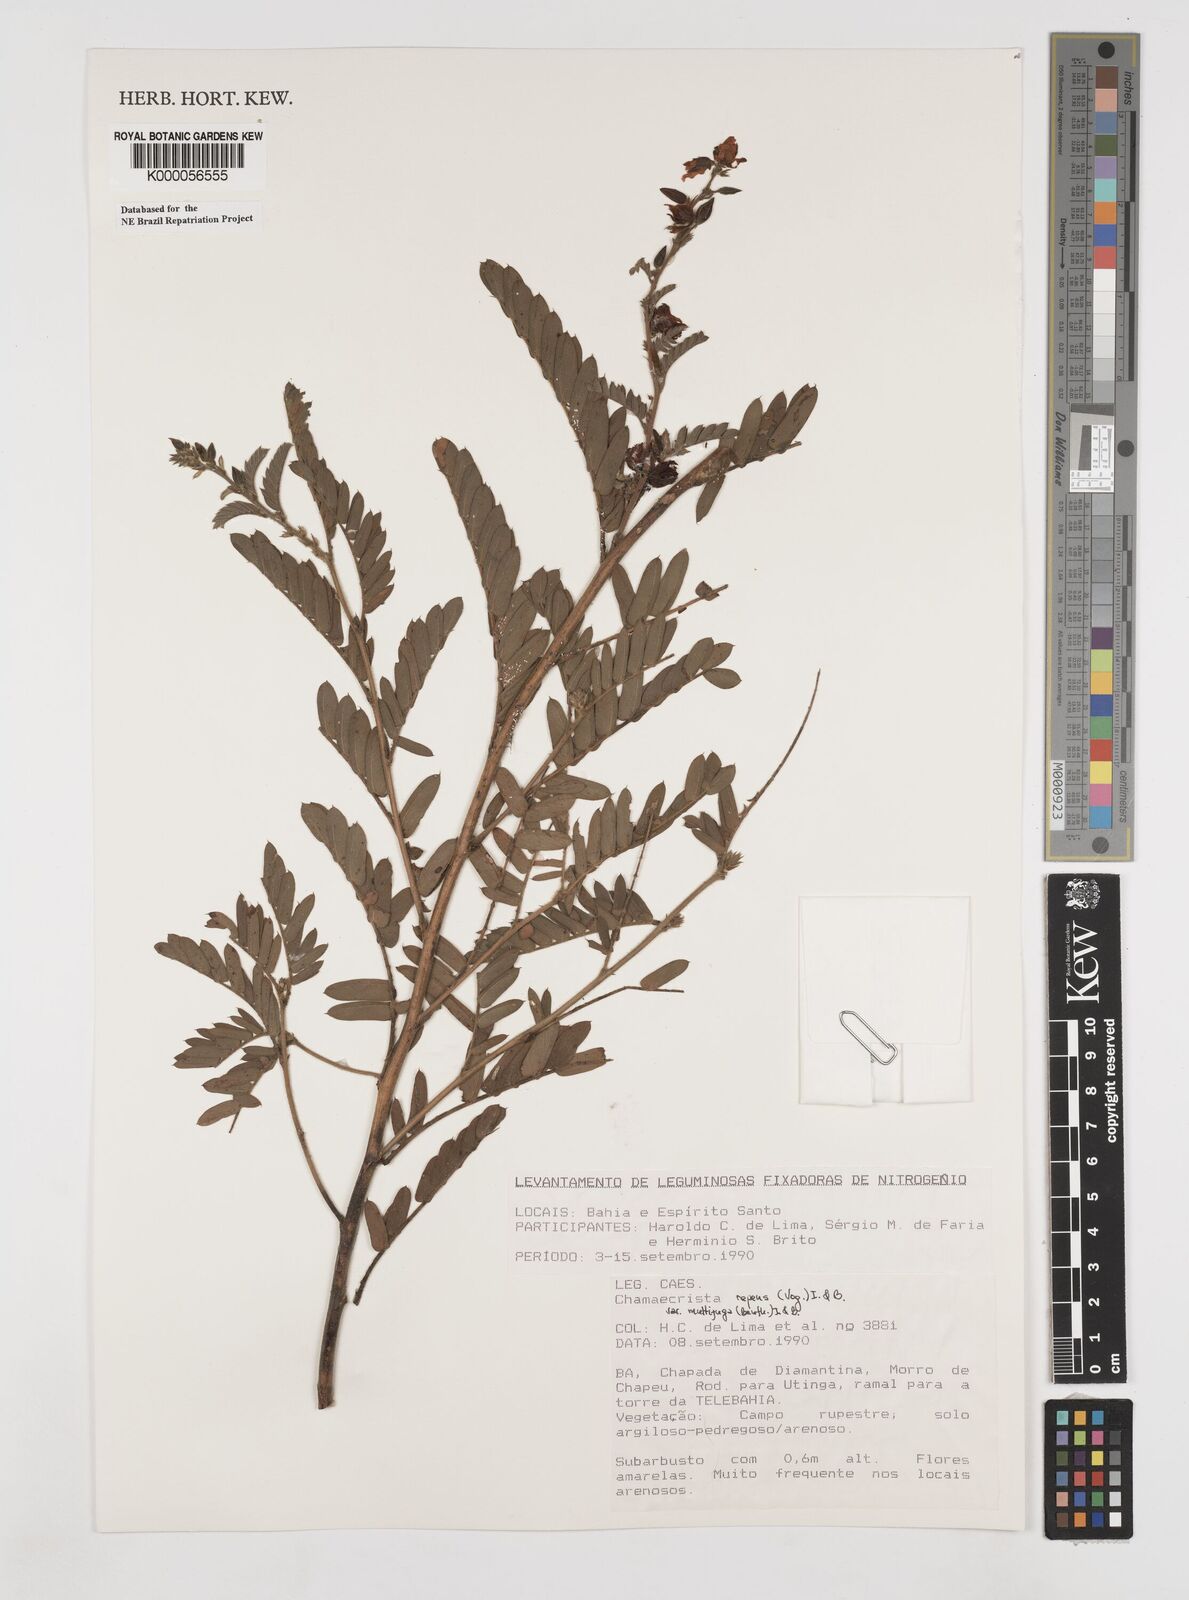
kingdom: Plantae
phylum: Tracheophyta
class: Magnoliopsida
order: Fabales
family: Fabaceae
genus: Chamaecrista
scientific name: Chamaecrista repens
